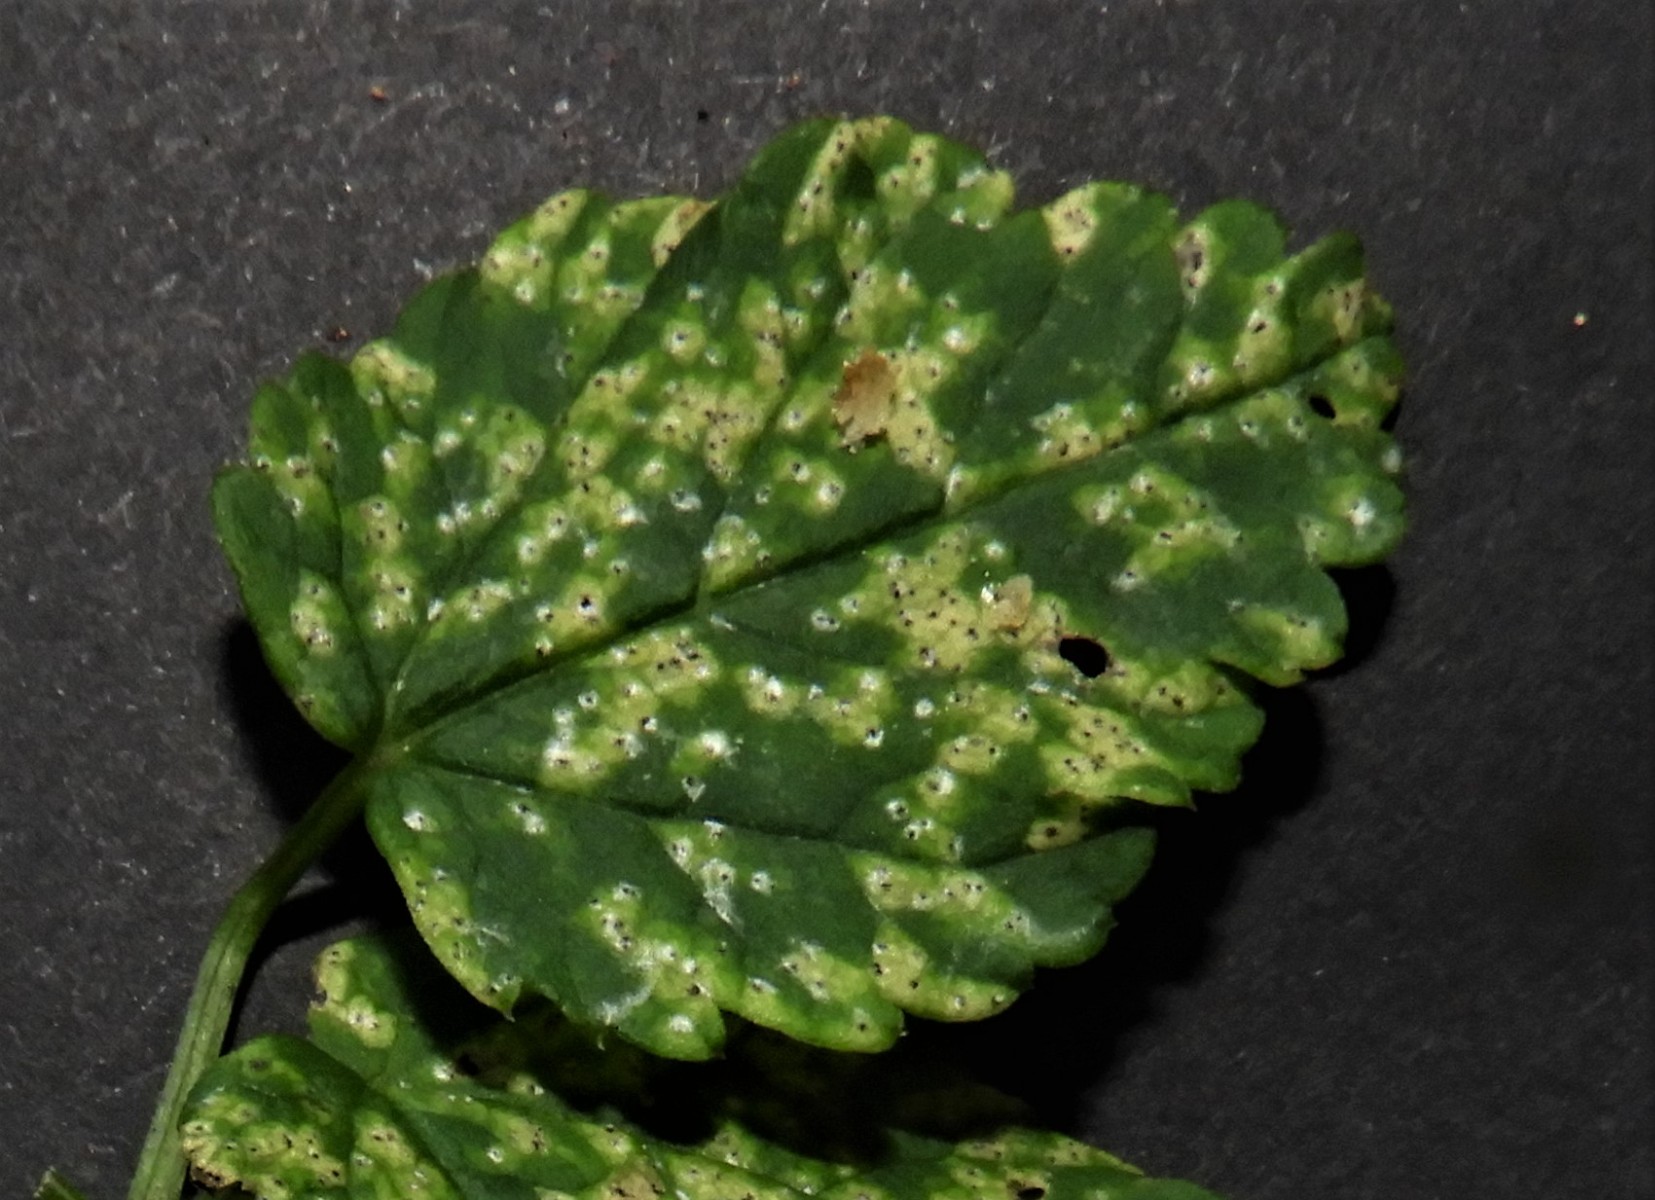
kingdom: Fungi
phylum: Ascomycota
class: Dothideomycetes
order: Mycosphaerellales
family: Mycosphaerellaceae
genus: Mycosphaerella
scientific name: Mycosphaerella podagrariae
